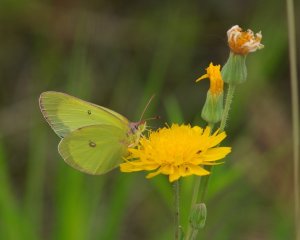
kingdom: Animalia
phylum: Arthropoda
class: Insecta
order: Lepidoptera
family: Pieridae
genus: Colias
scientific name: Colias interior
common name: Pink-edged Sulphur
